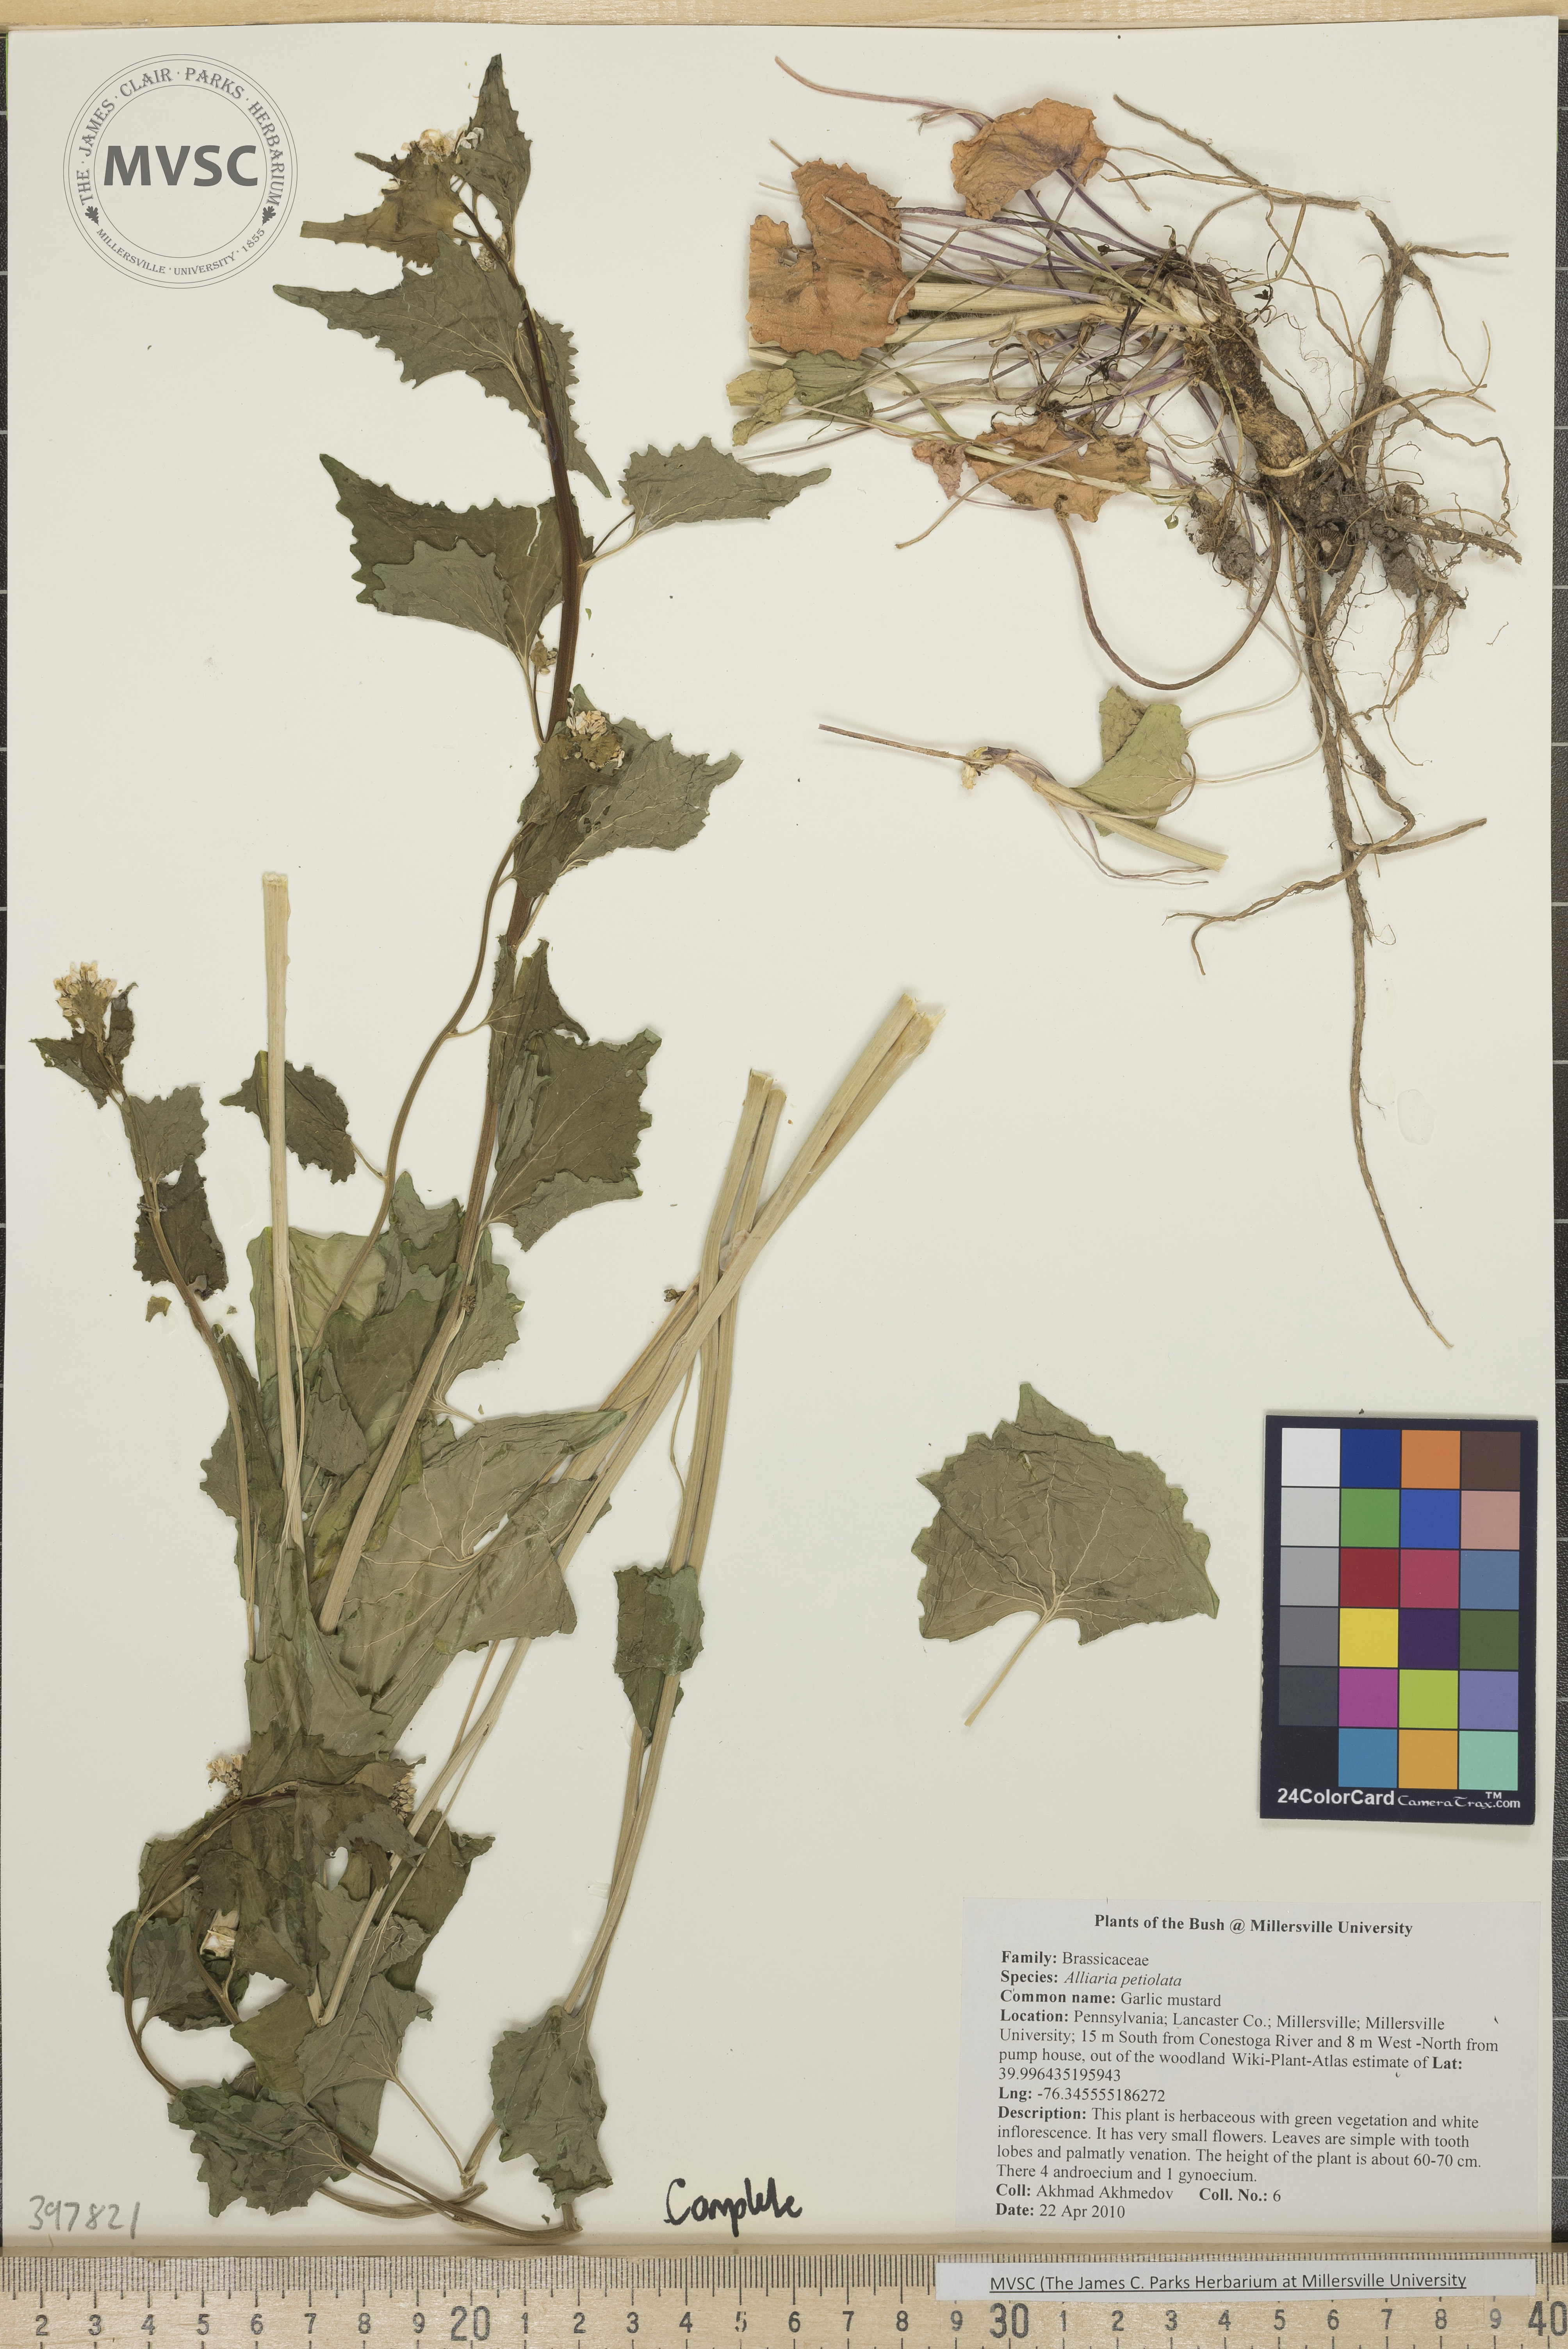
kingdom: Plantae
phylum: Tracheophyta
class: Magnoliopsida
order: Brassicales
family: Brassicaceae
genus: Alliaria
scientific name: Alliaria petiolata
